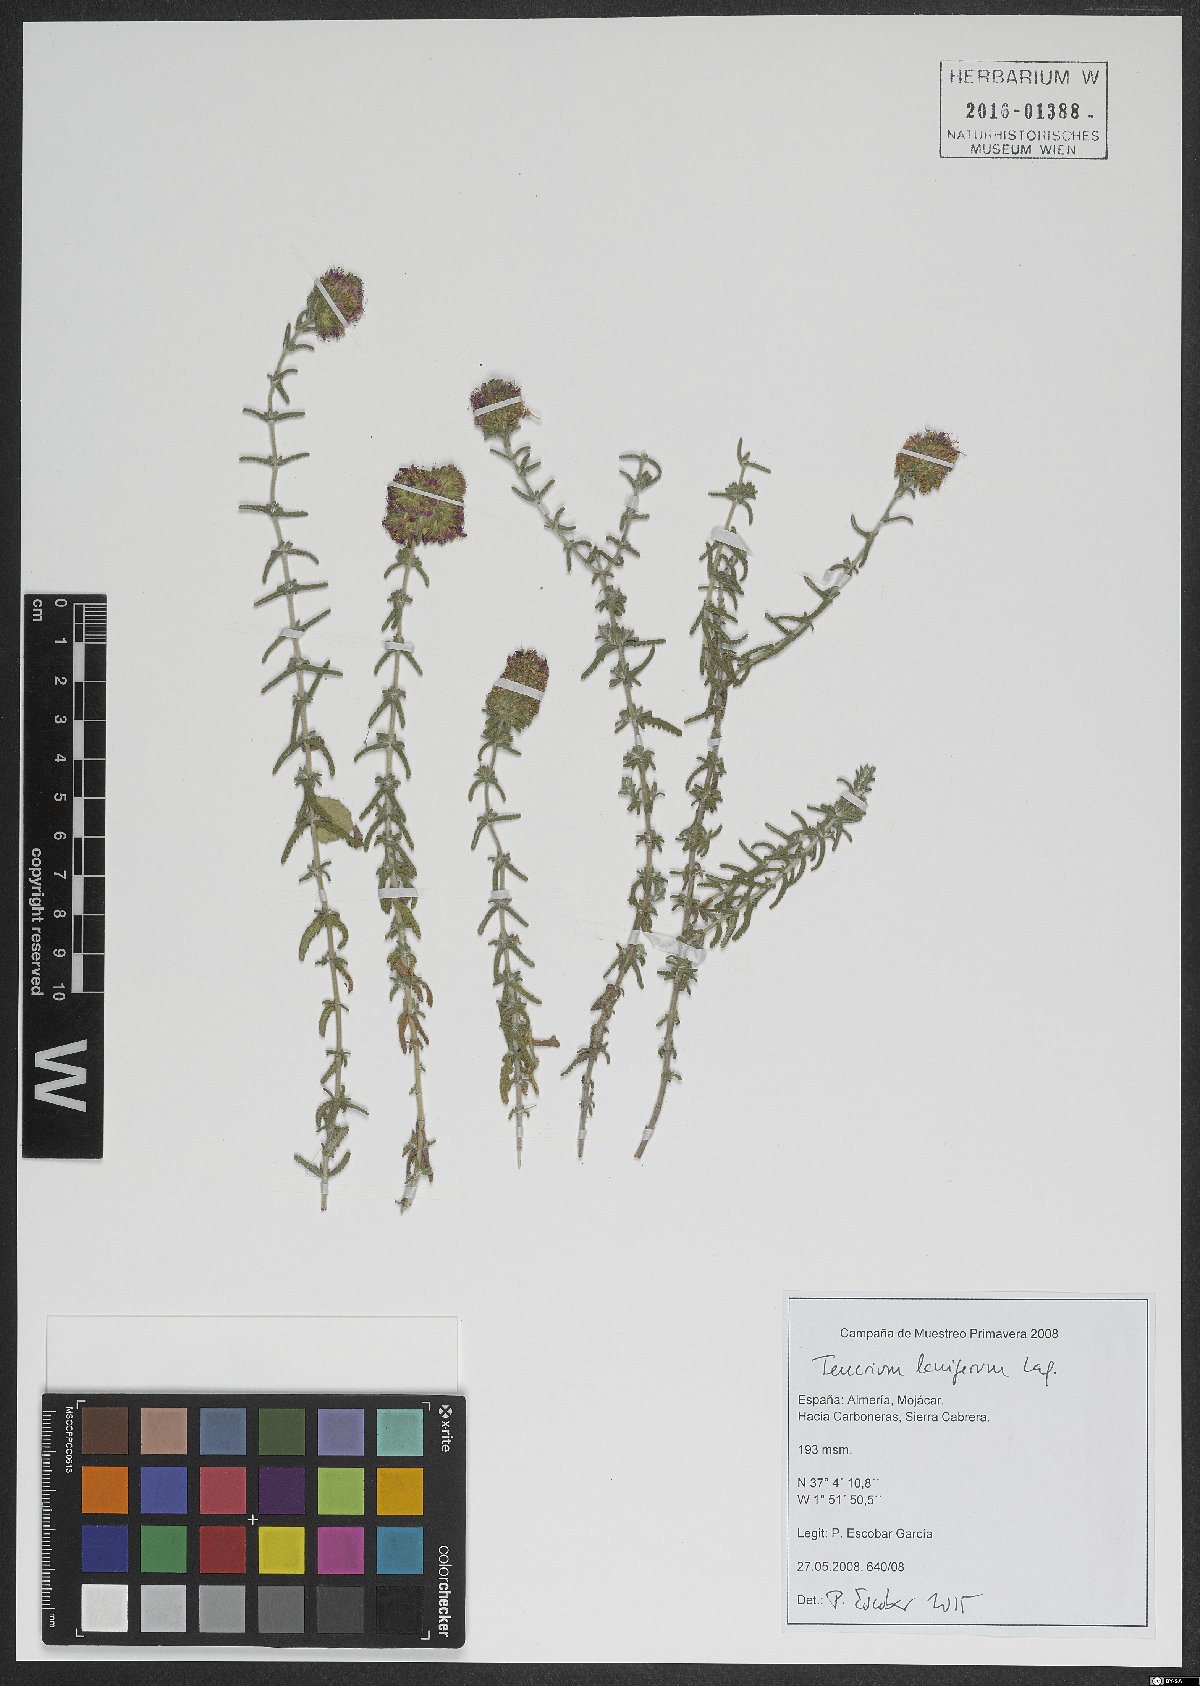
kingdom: Plantae
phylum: Tracheophyta
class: Magnoliopsida
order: Lamiales
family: Lamiaceae
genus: Teucrium
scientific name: Teucrium lanigerum
